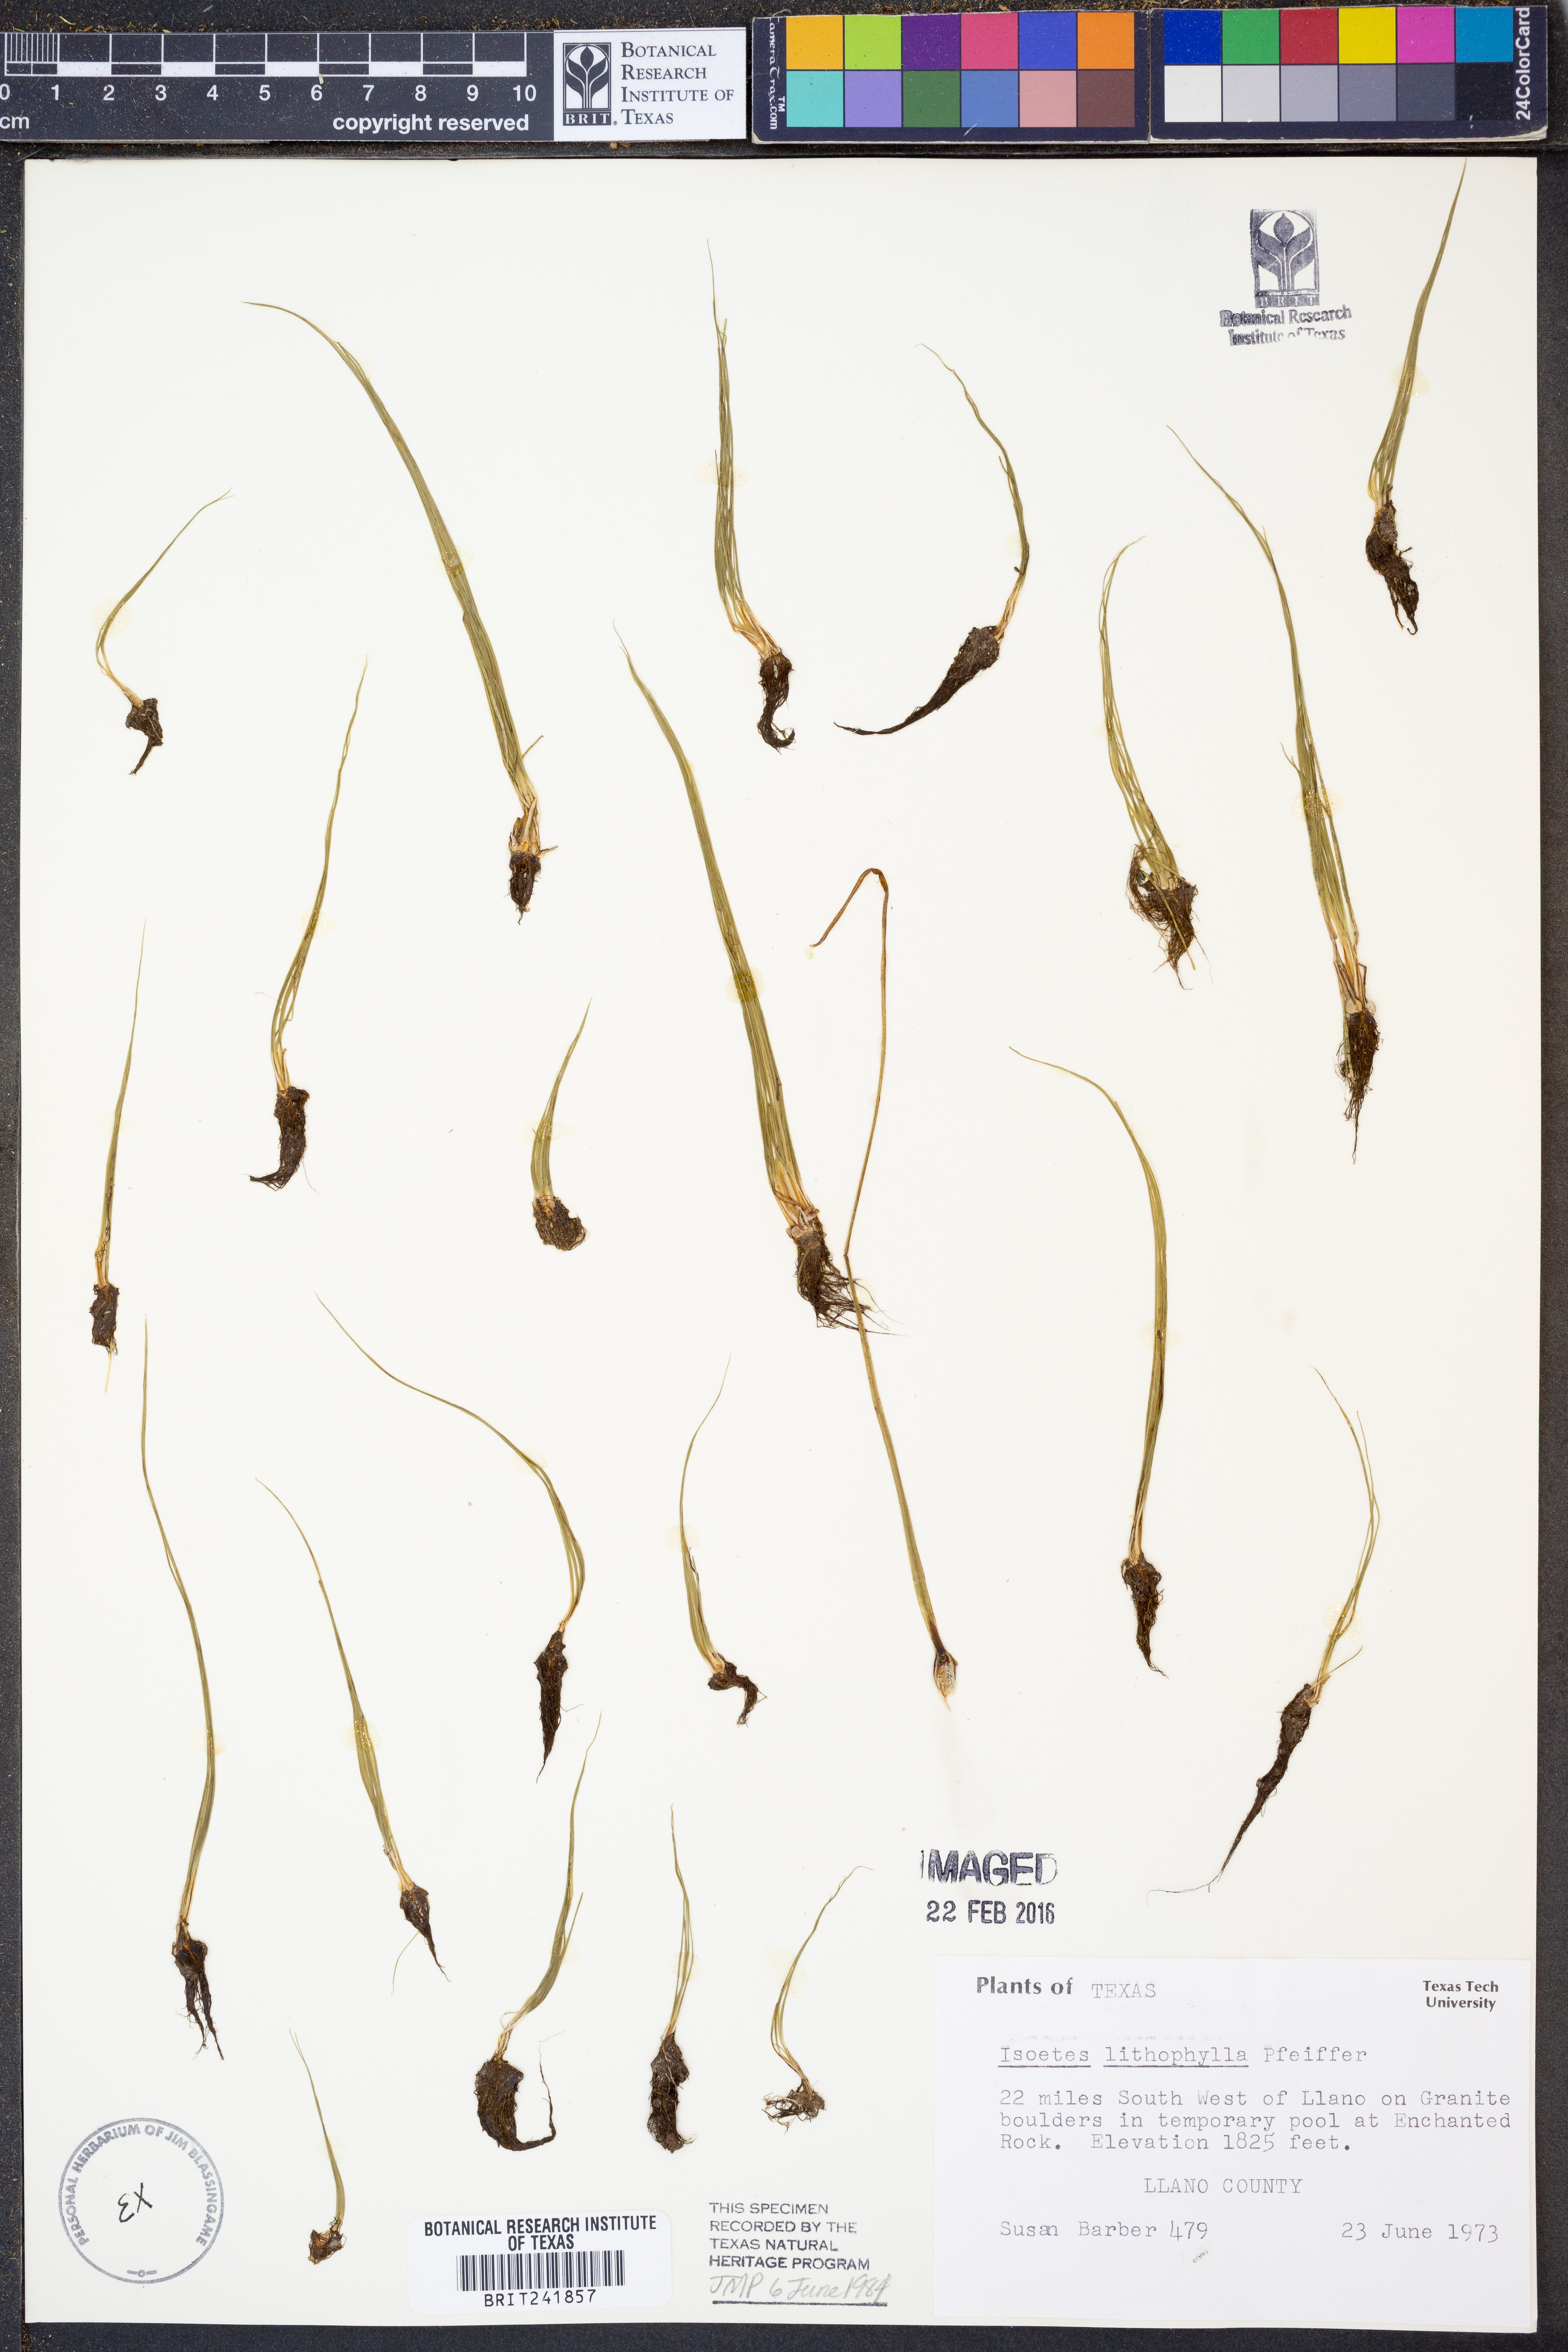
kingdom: Plantae
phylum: Tracheophyta
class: Lycopodiopsida
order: Isoetales
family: Isoetaceae
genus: Isoetes
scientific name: Isoetes lithophila
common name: Rock quillwort
